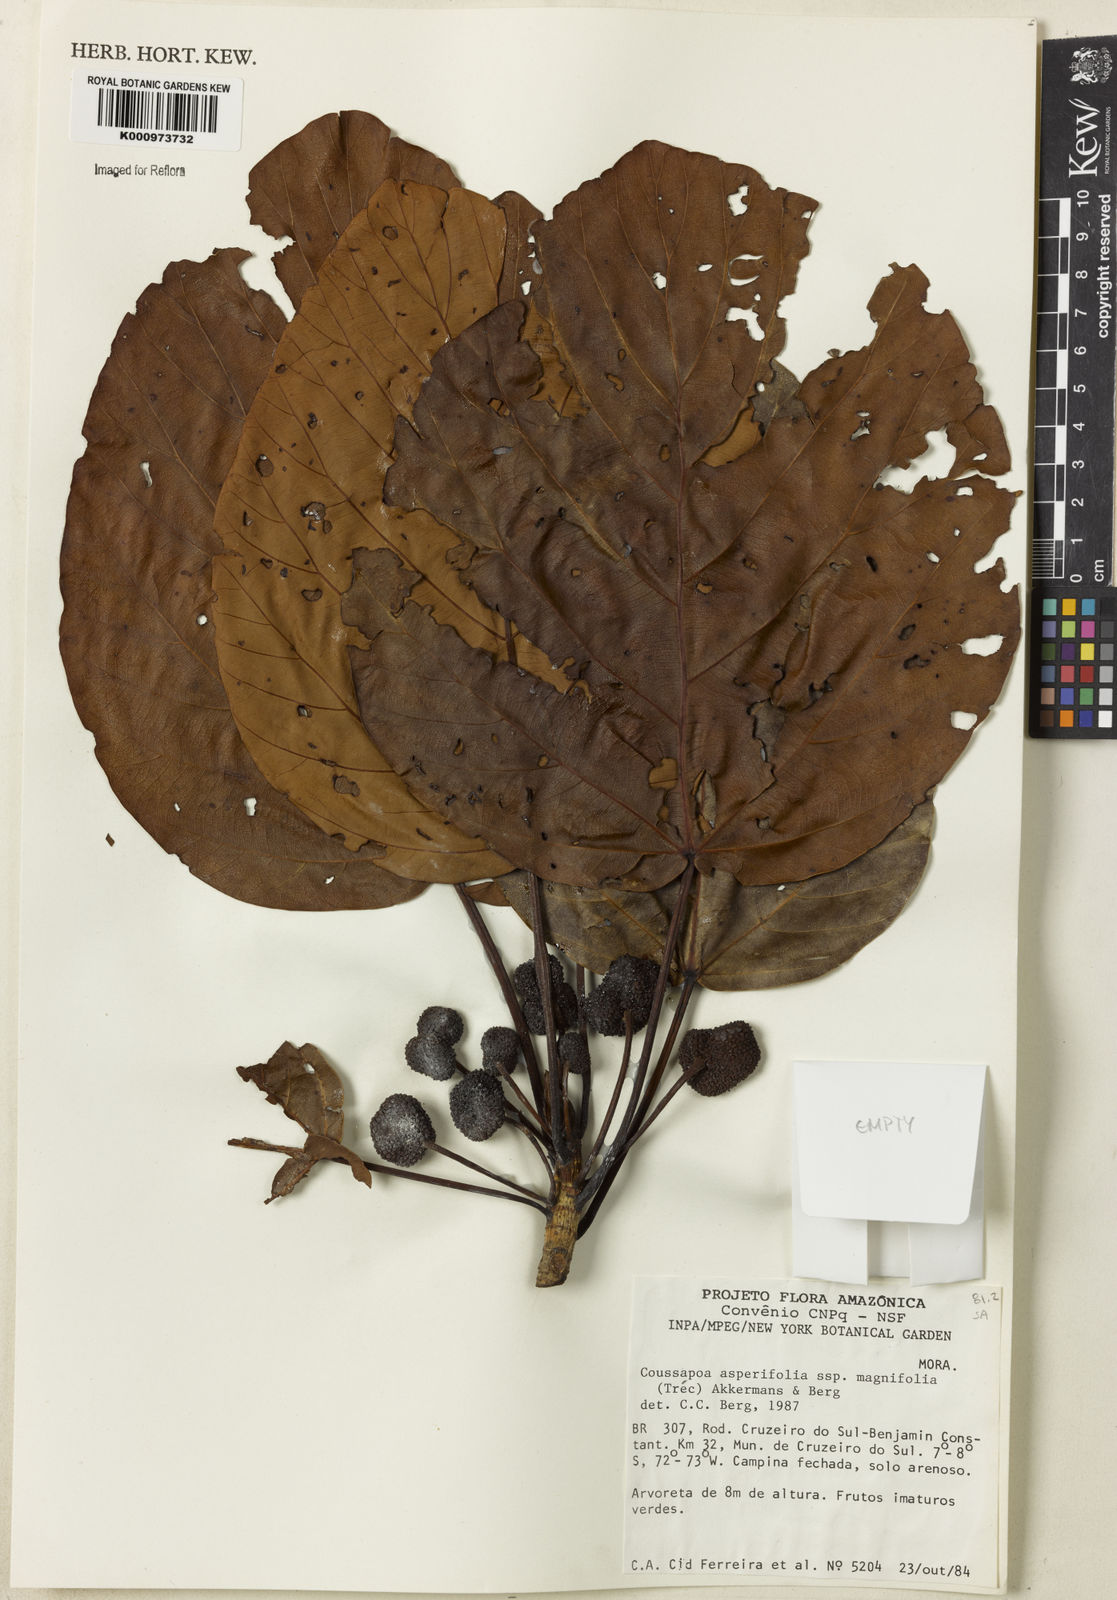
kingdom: Plantae
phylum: Tracheophyta
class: Magnoliopsida
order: Rosales
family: Urticaceae
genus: Coussapoa
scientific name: Coussapoa
